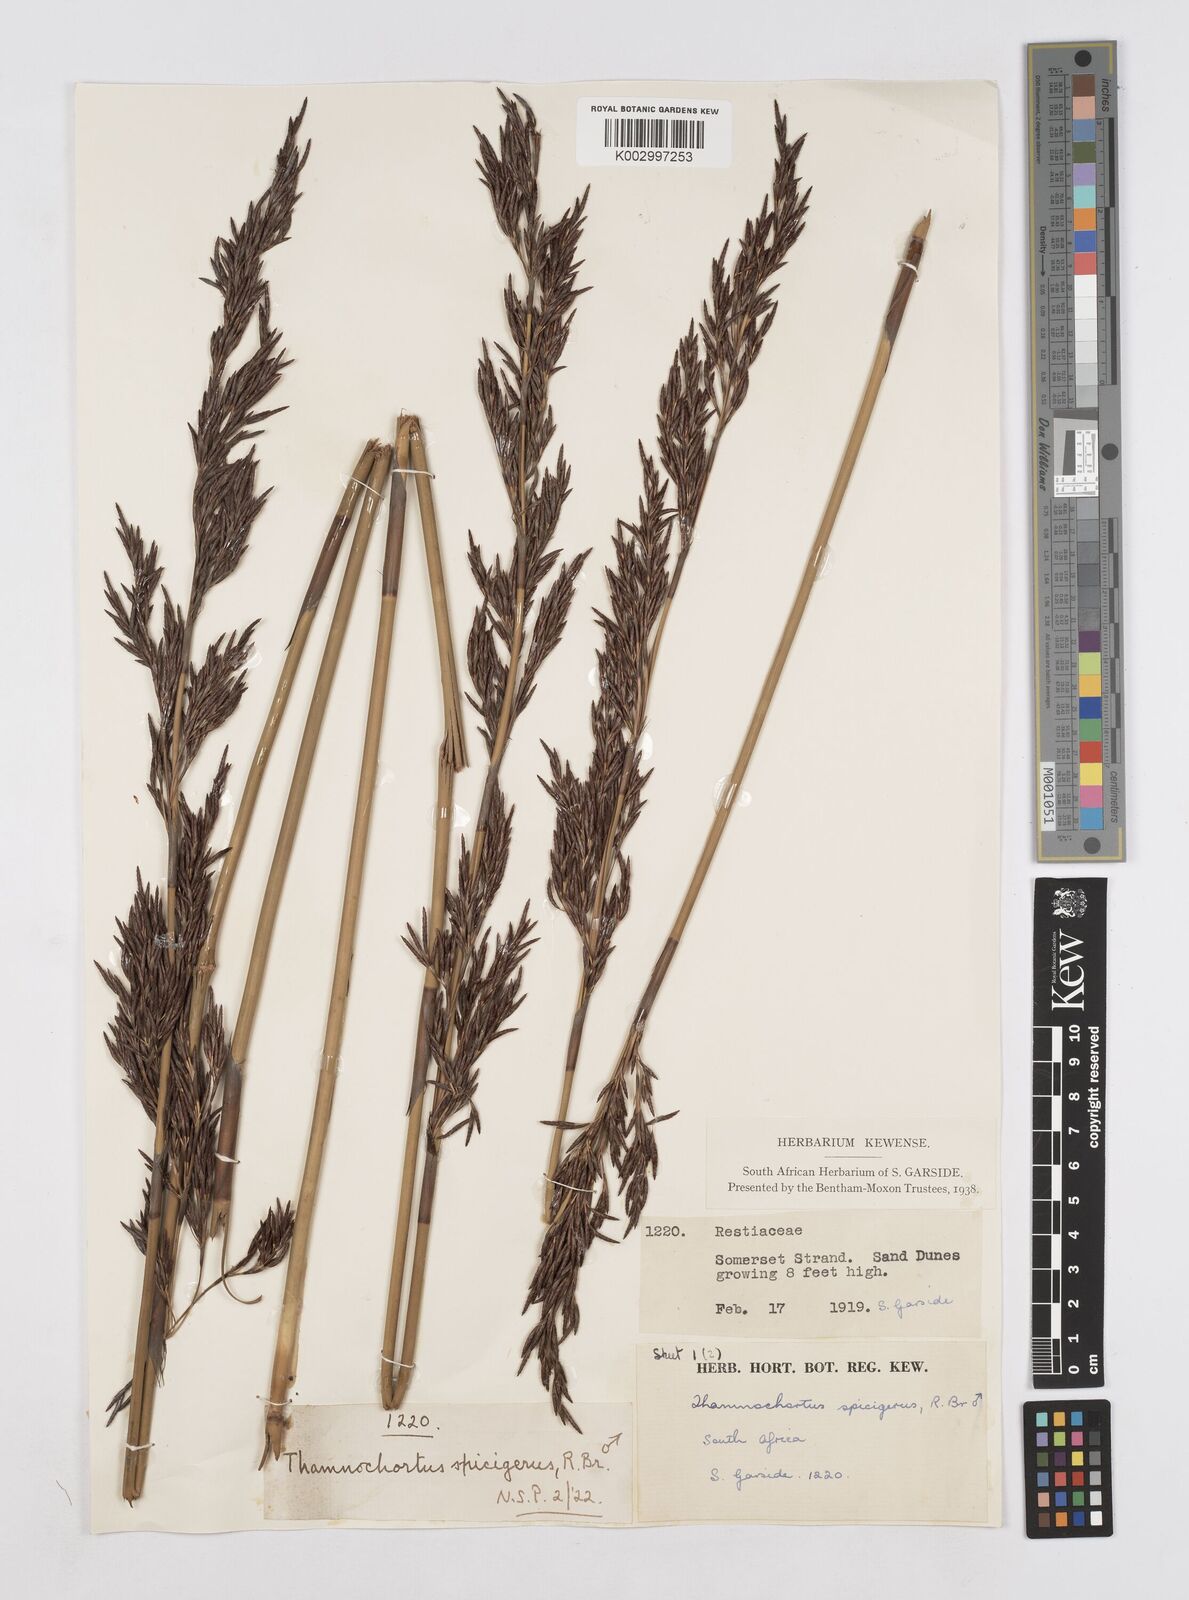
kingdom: Plantae
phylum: Tracheophyta
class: Liliopsida
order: Poales
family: Restionaceae
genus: Thamnochortus
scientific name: Thamnochortus spicigerus
